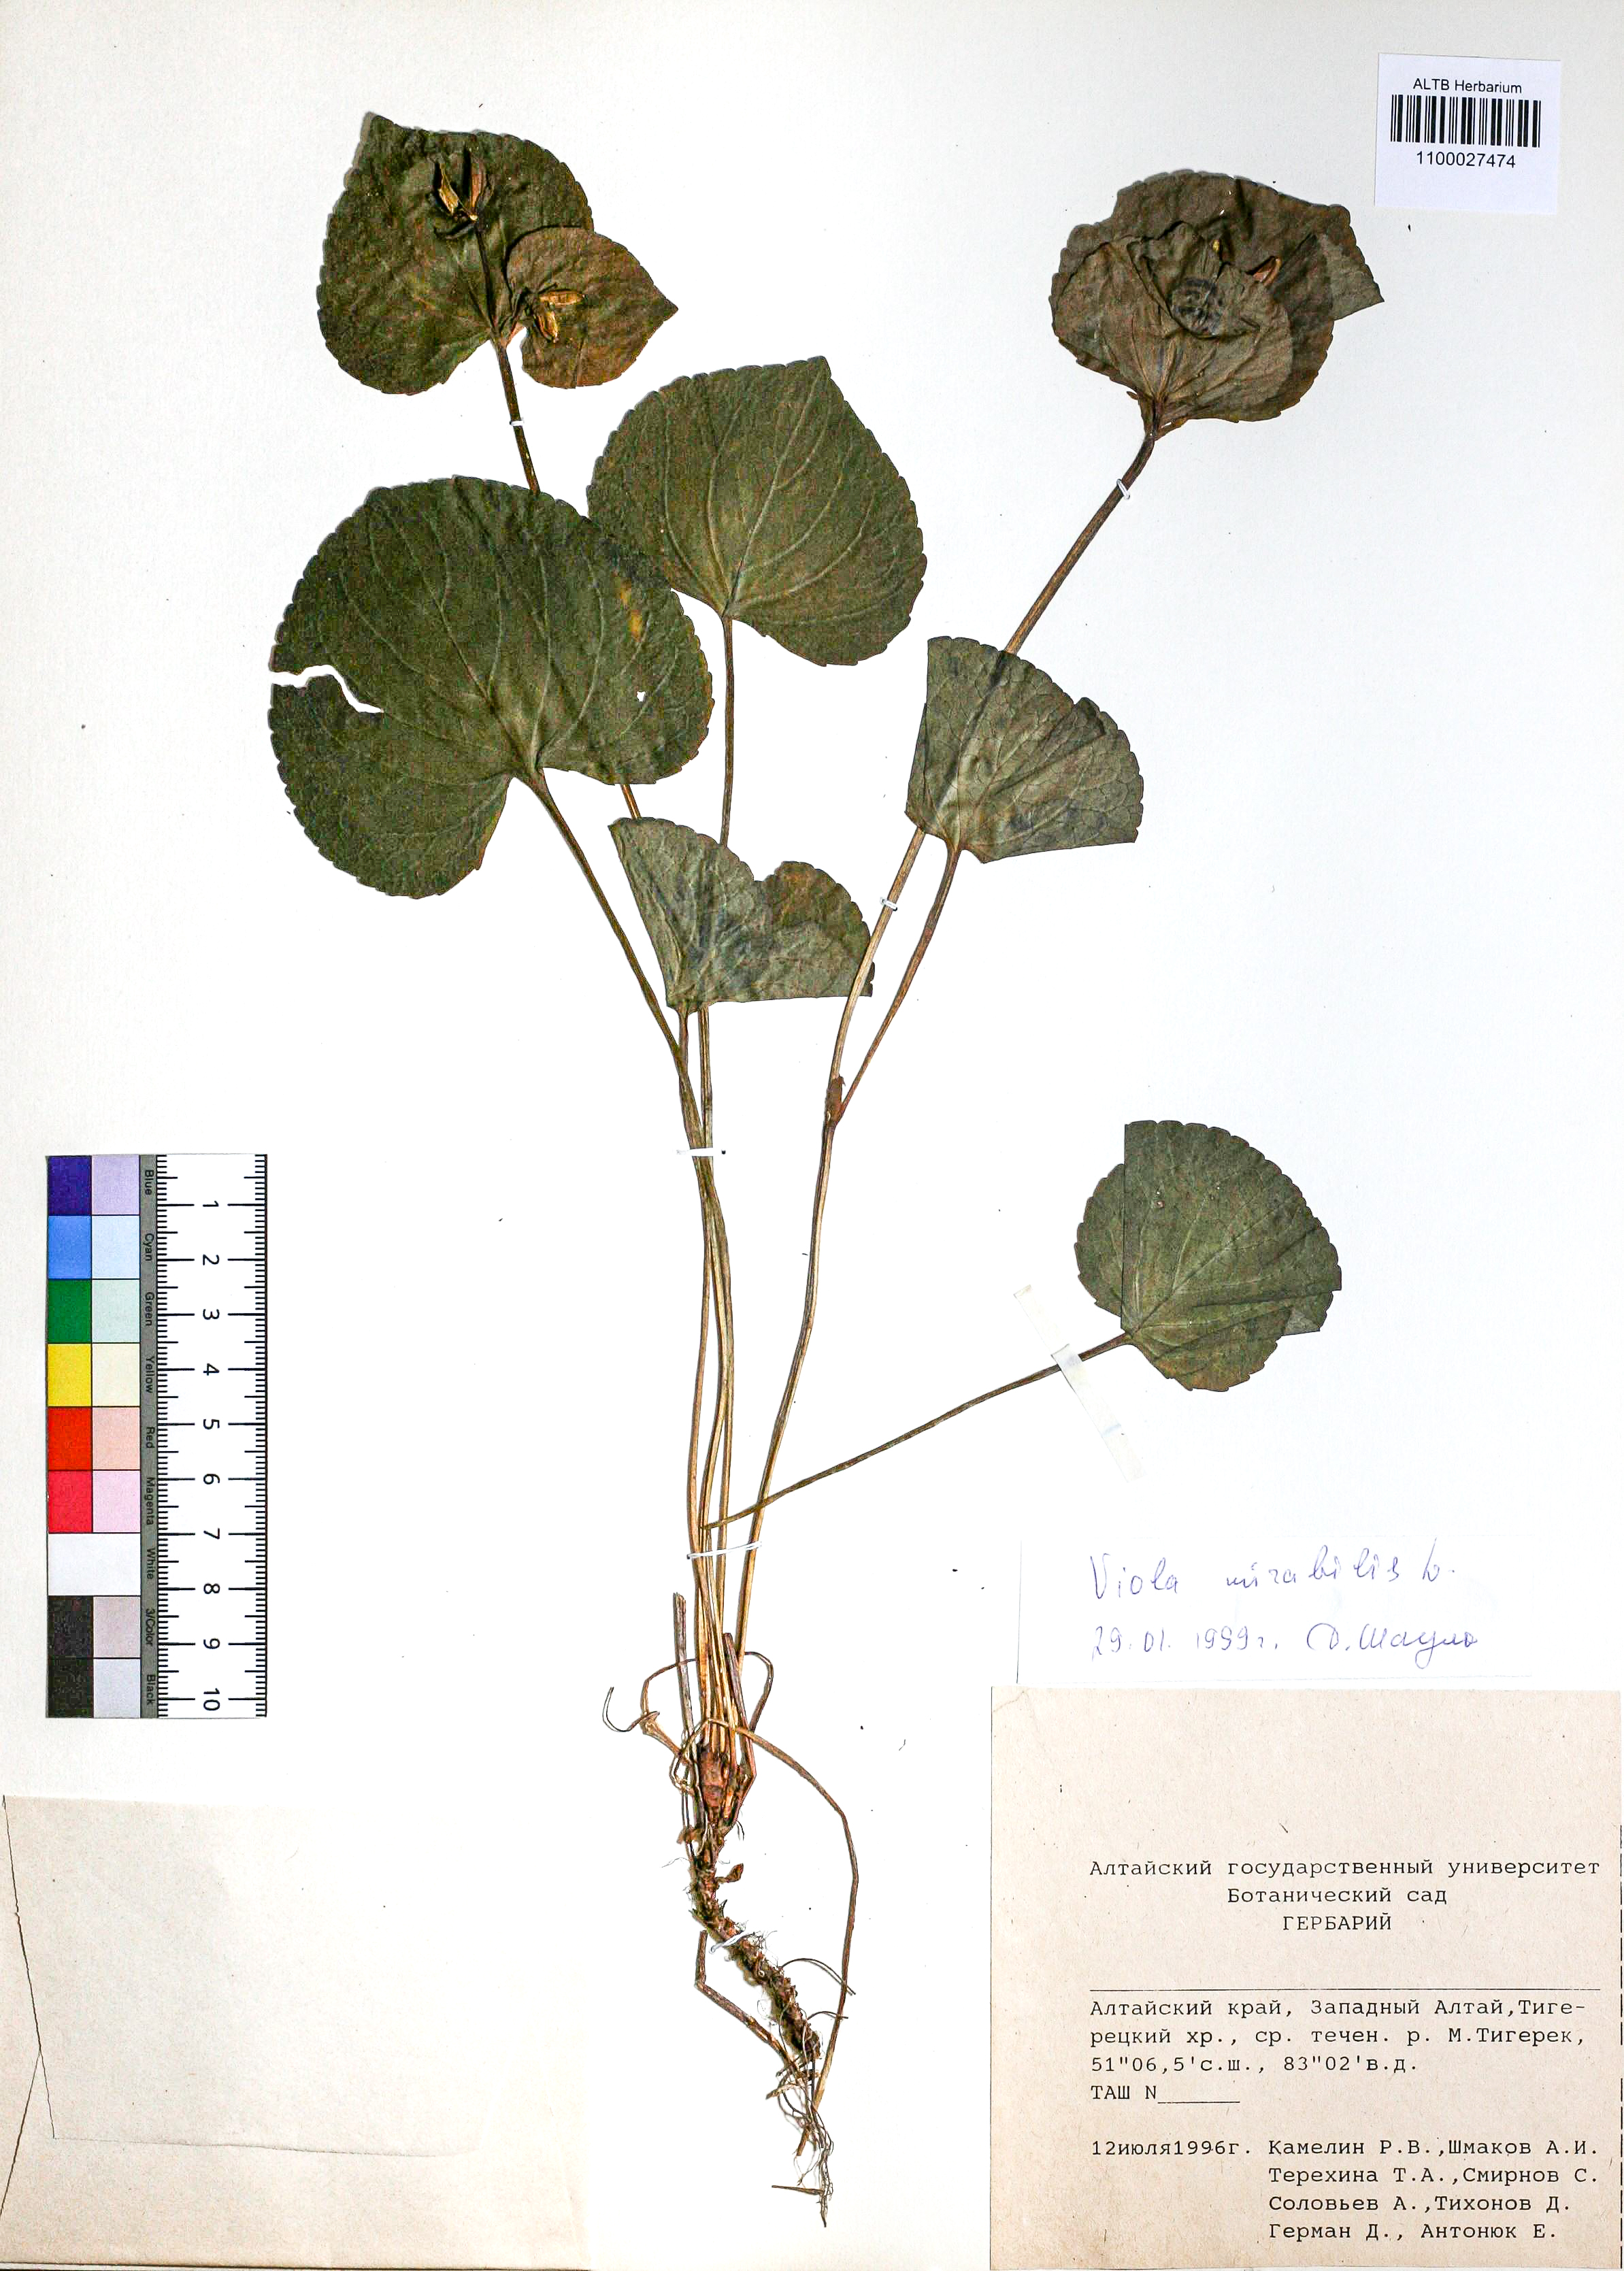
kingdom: Plantae
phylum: Tracheophyta
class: Magnoliopsida
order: Malpighiales
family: Violaceae
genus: Viola
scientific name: Viola mirabilis
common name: Wonder violet
